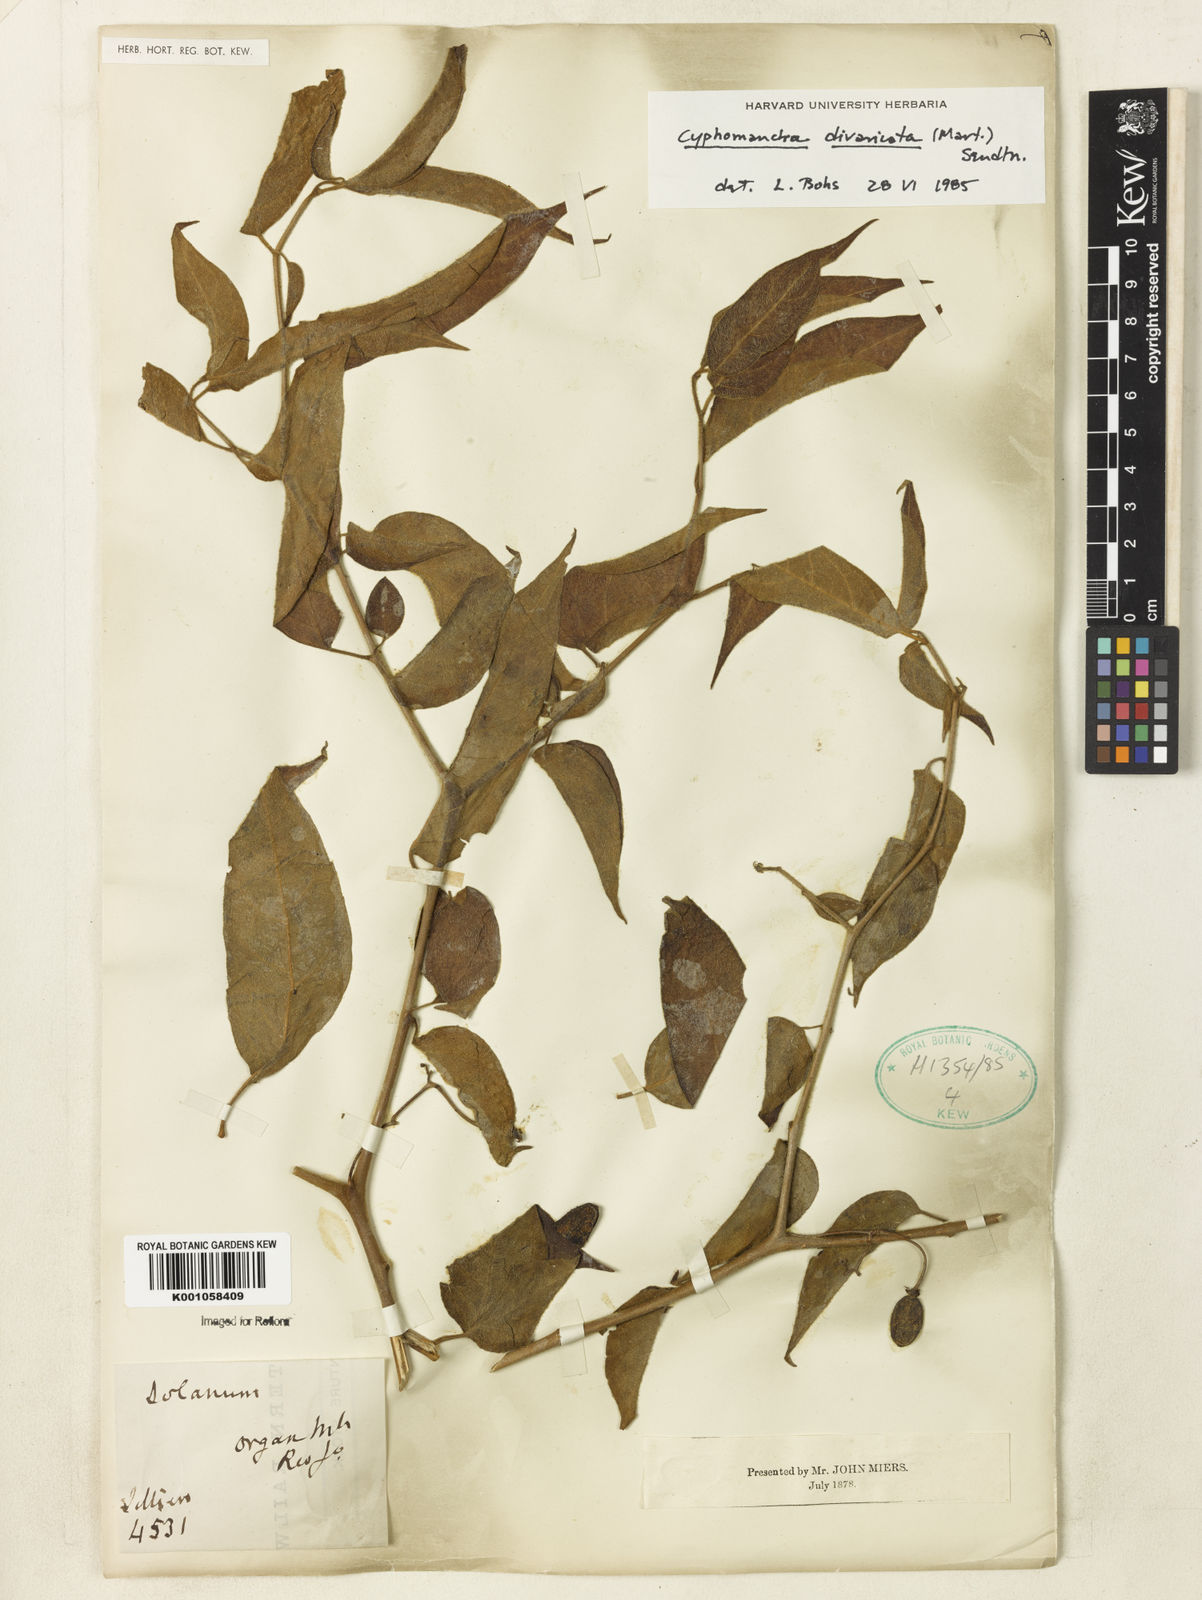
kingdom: Plantae
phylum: Tracheophyta
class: Magnoliopsida
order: Solanales
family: Solanaceae
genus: Solanum
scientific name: Solanum melissarum
